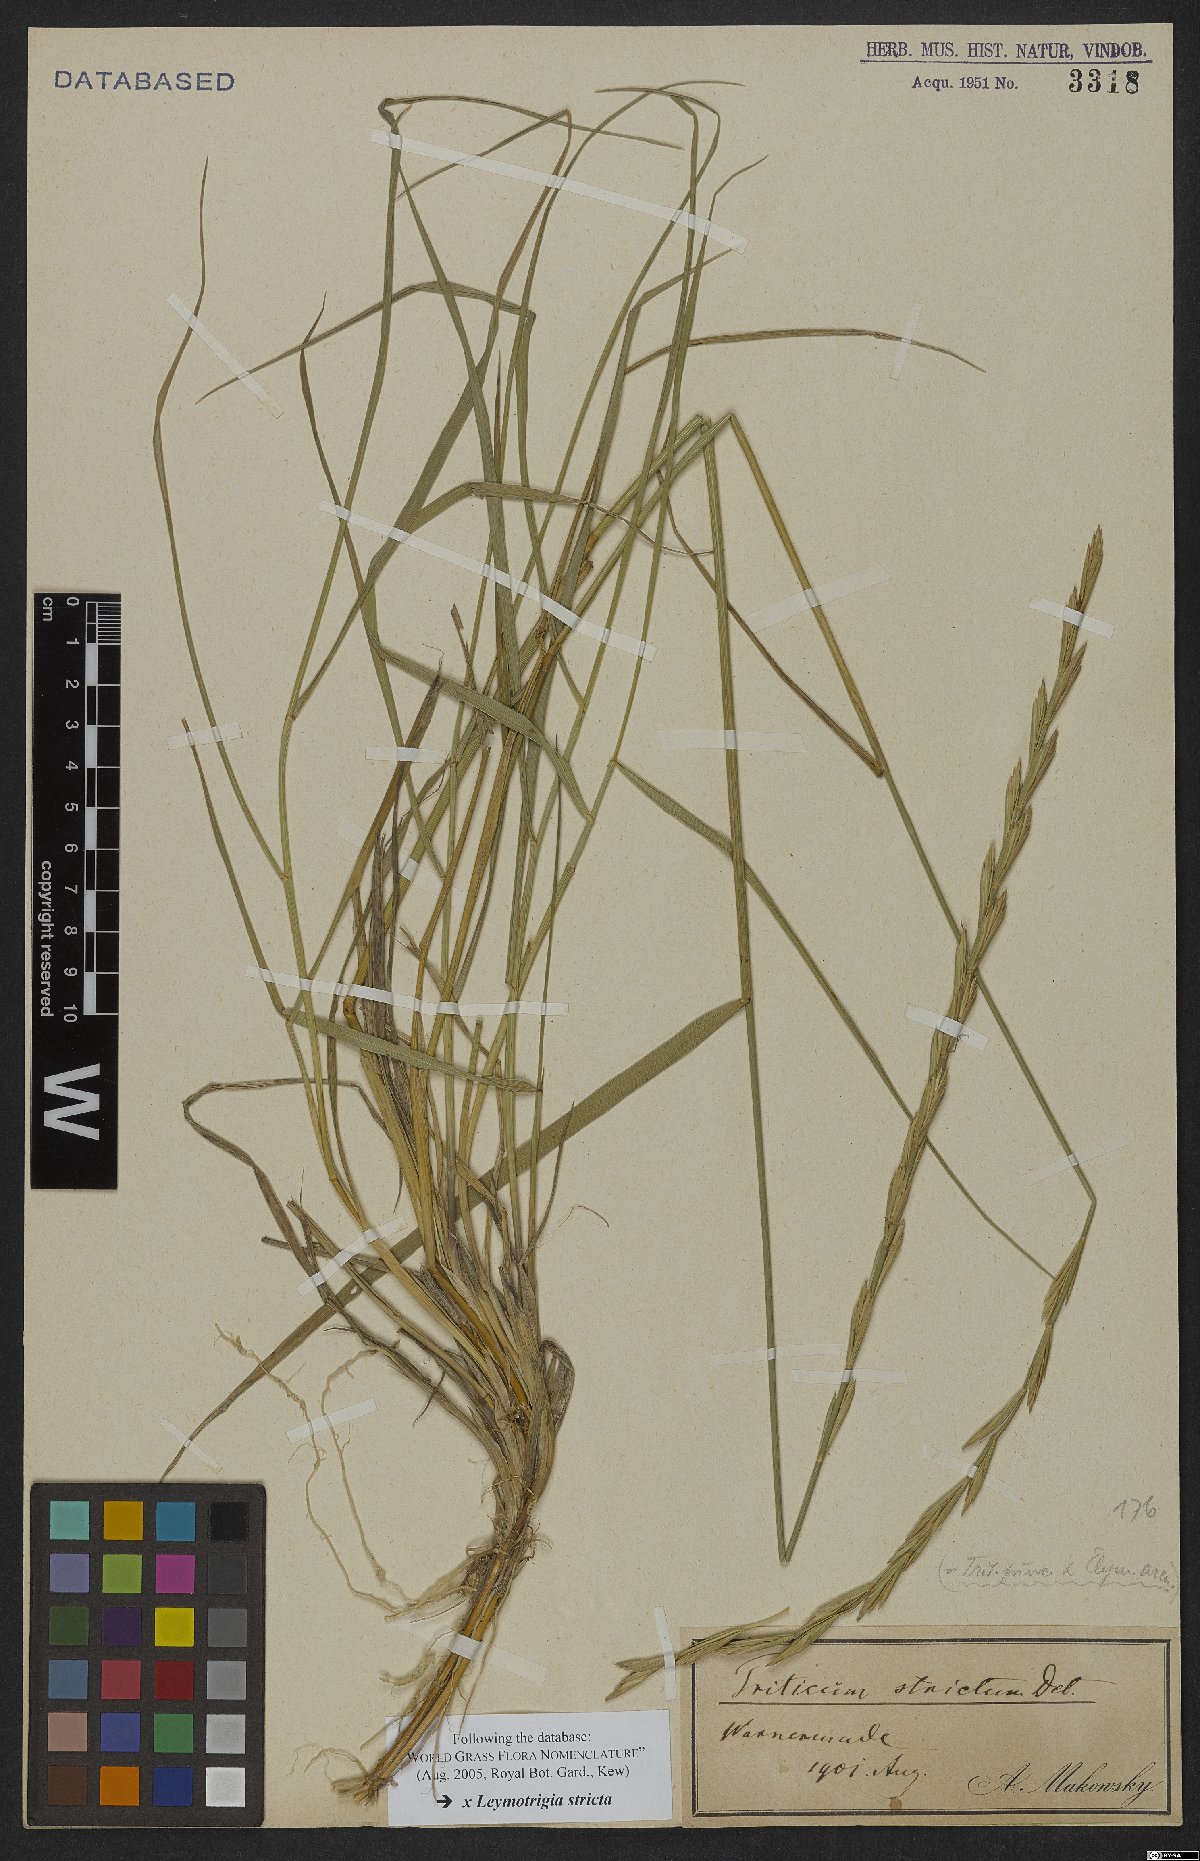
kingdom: Plantae
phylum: Tracheophyta
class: Liliopsida
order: Poales
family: Poaceae
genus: Elyleymus
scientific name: Elyleymus strictus
